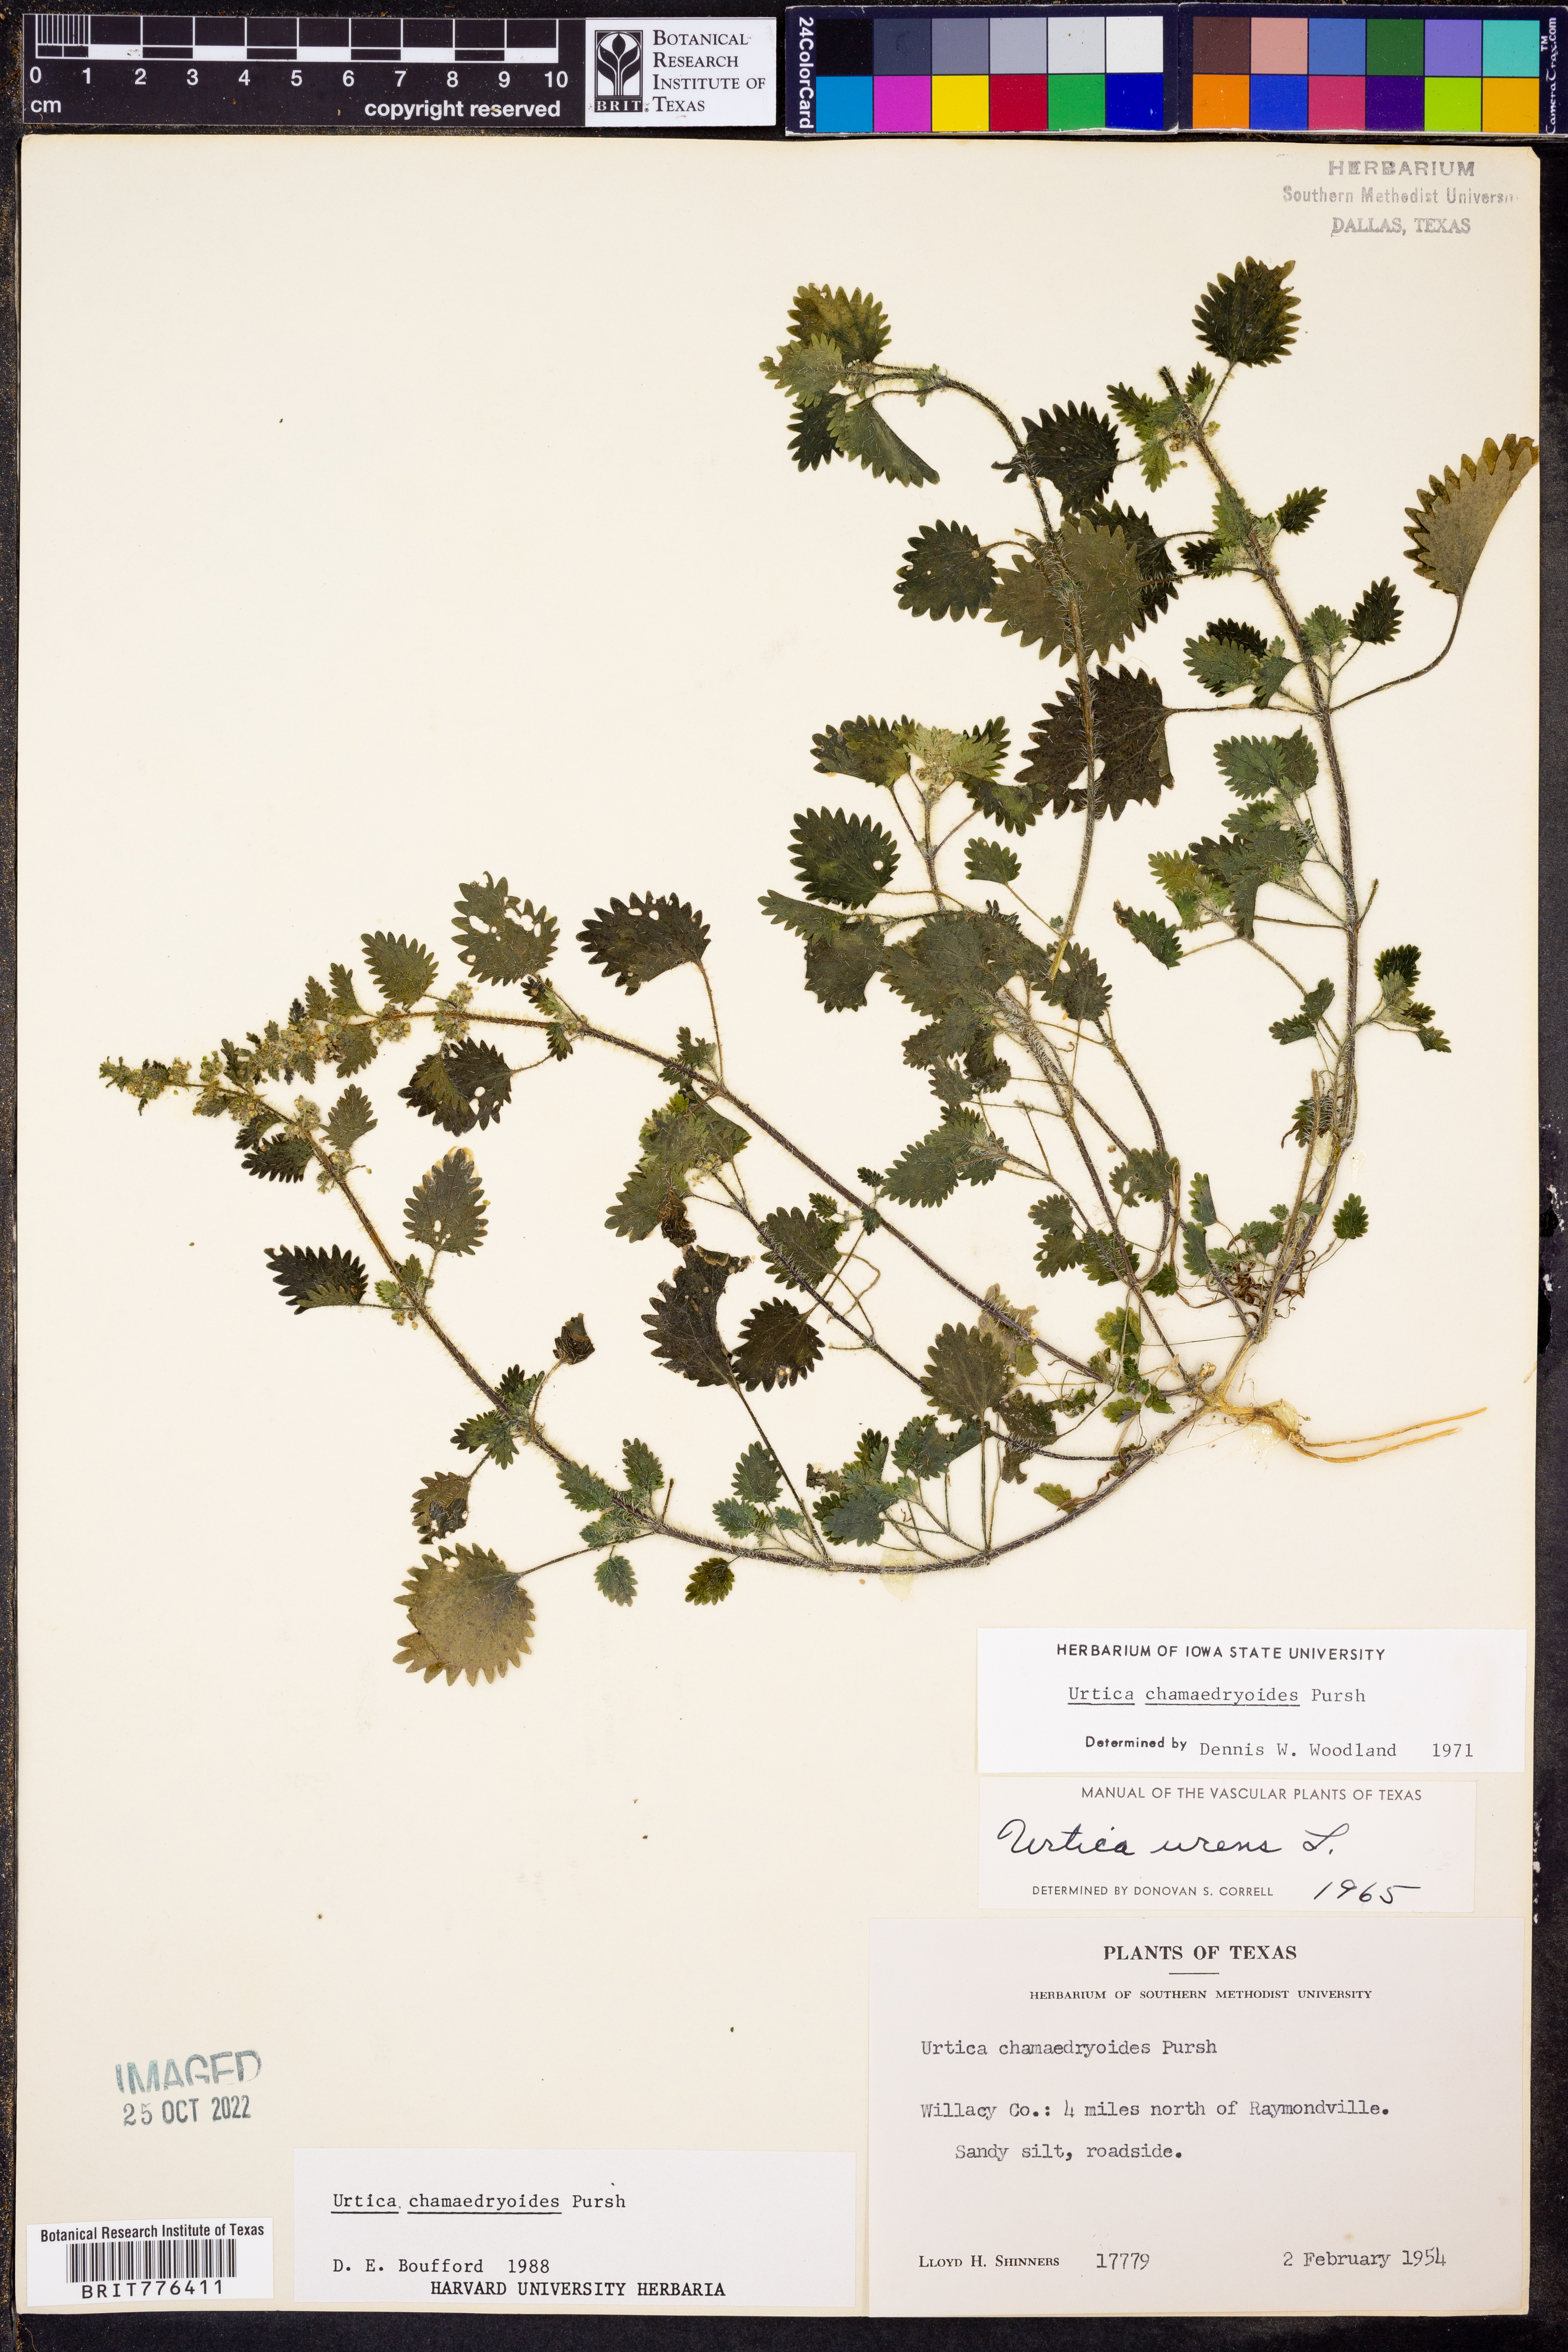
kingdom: Plantae
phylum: Tracheophyta
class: Magnoliopsida
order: Rosales
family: Urticaceae
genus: Urtica
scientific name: Urtica chamaedryoides
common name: Heart-leaf nettle
